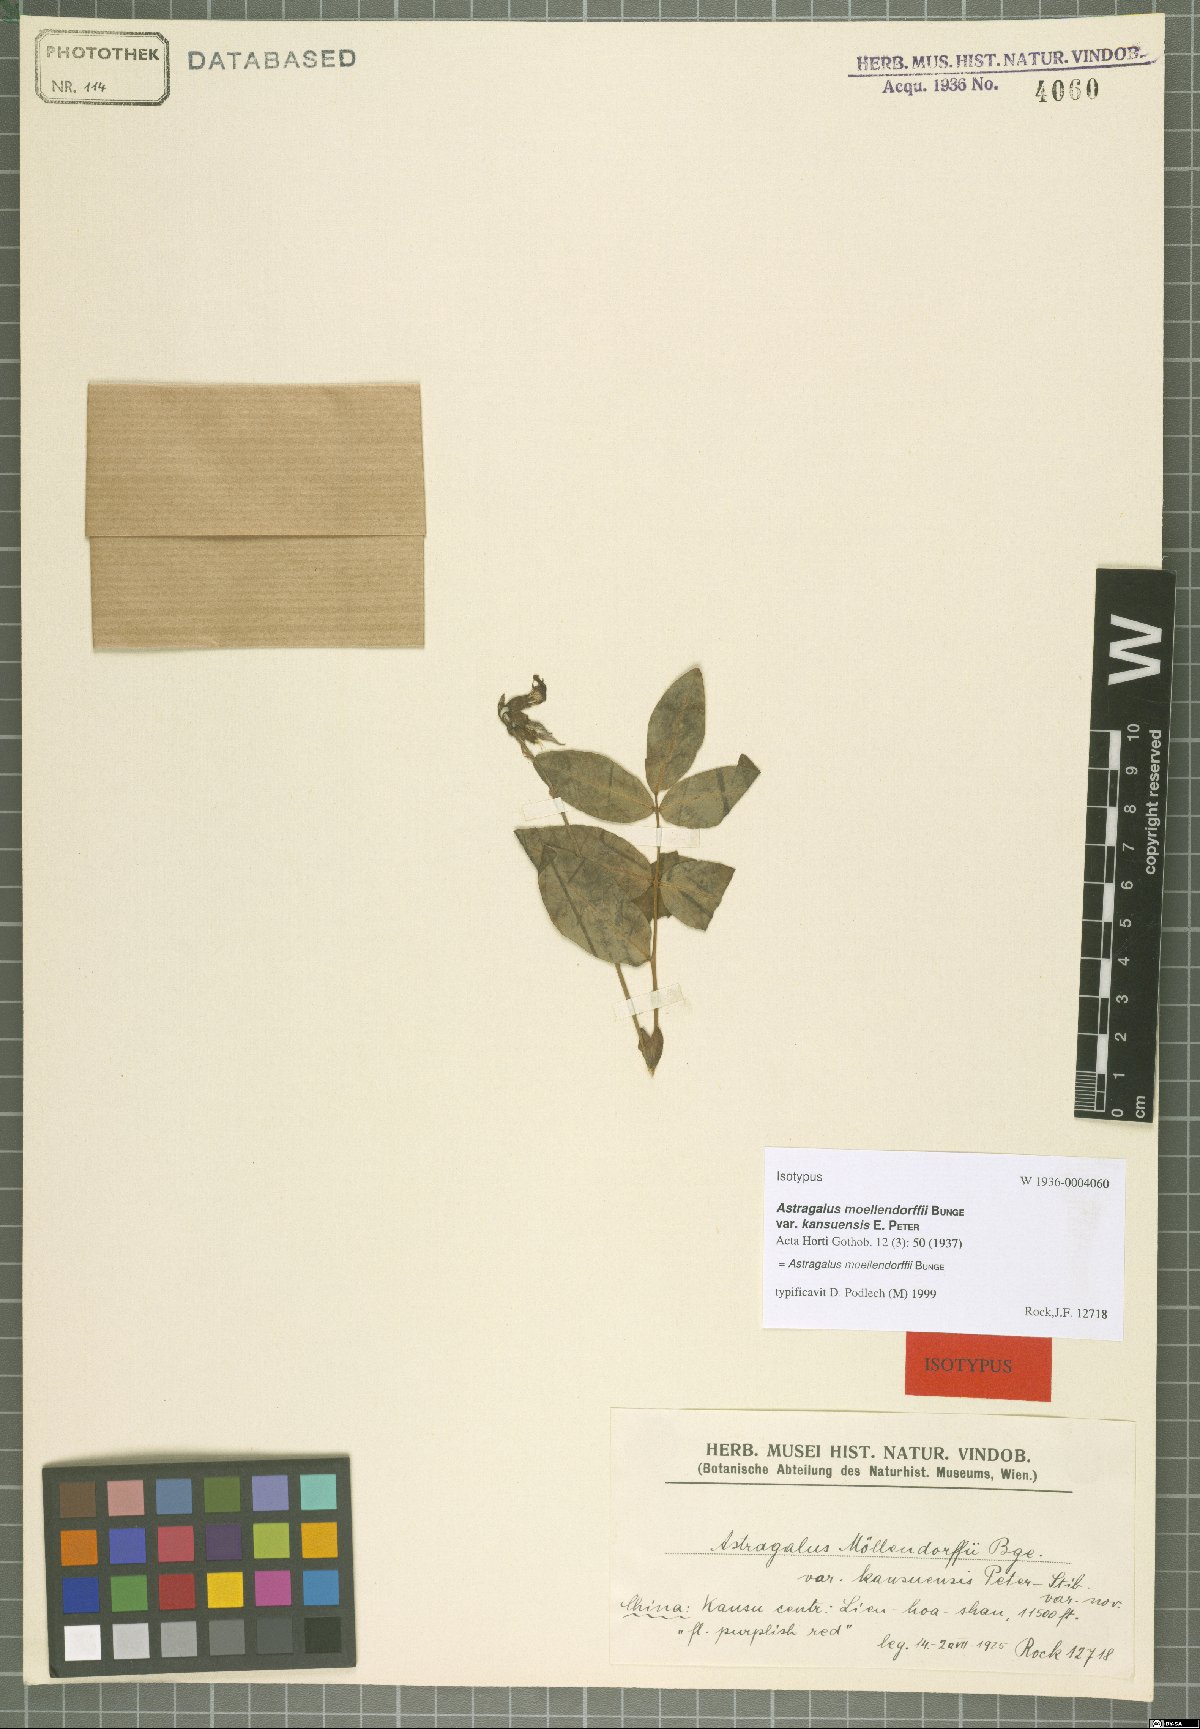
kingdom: Plantae
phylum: Tracheophyta
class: Magnoliopsida
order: Fabales
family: Fabaceae
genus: Astragalus
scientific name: Astragalus moellendorffi
